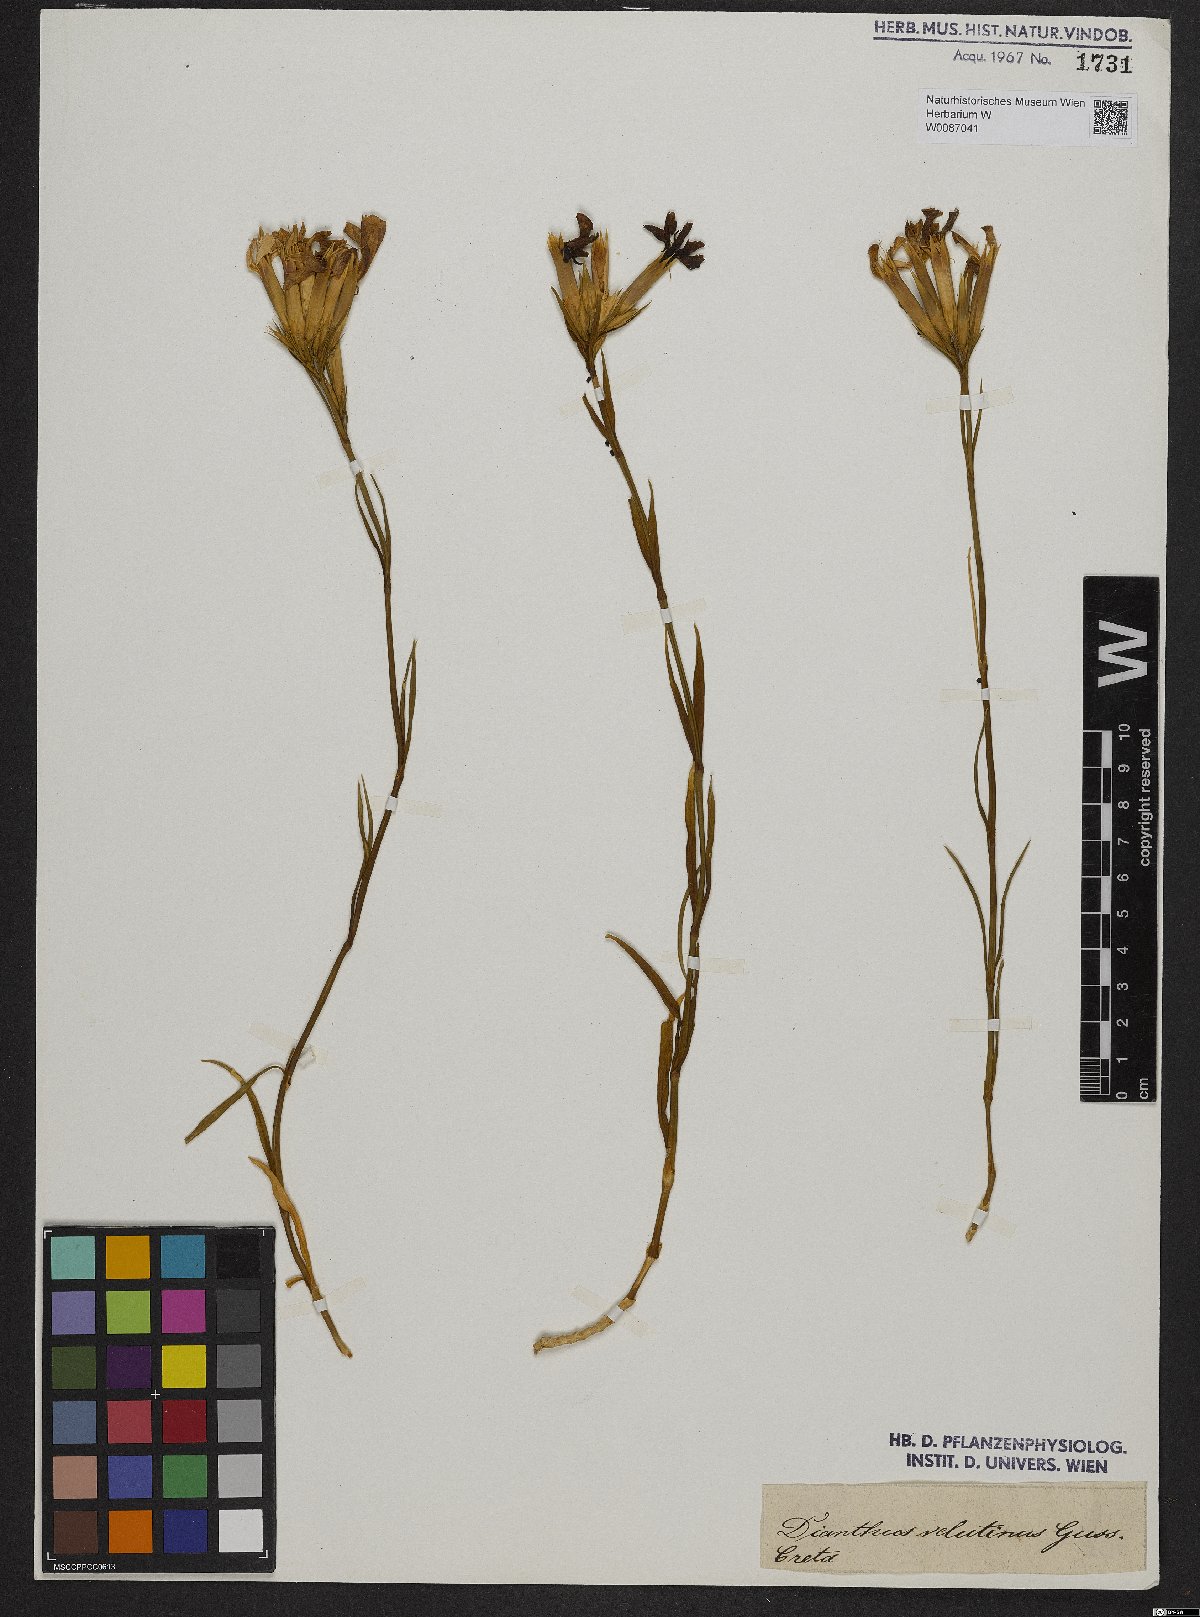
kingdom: Plantae
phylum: Tracheophyta
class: Magnoliopsida
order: Caryophyllales
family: Caryophyllaceae
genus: Petrorhagia
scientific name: Petrorhagia dubia
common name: Hairypink
